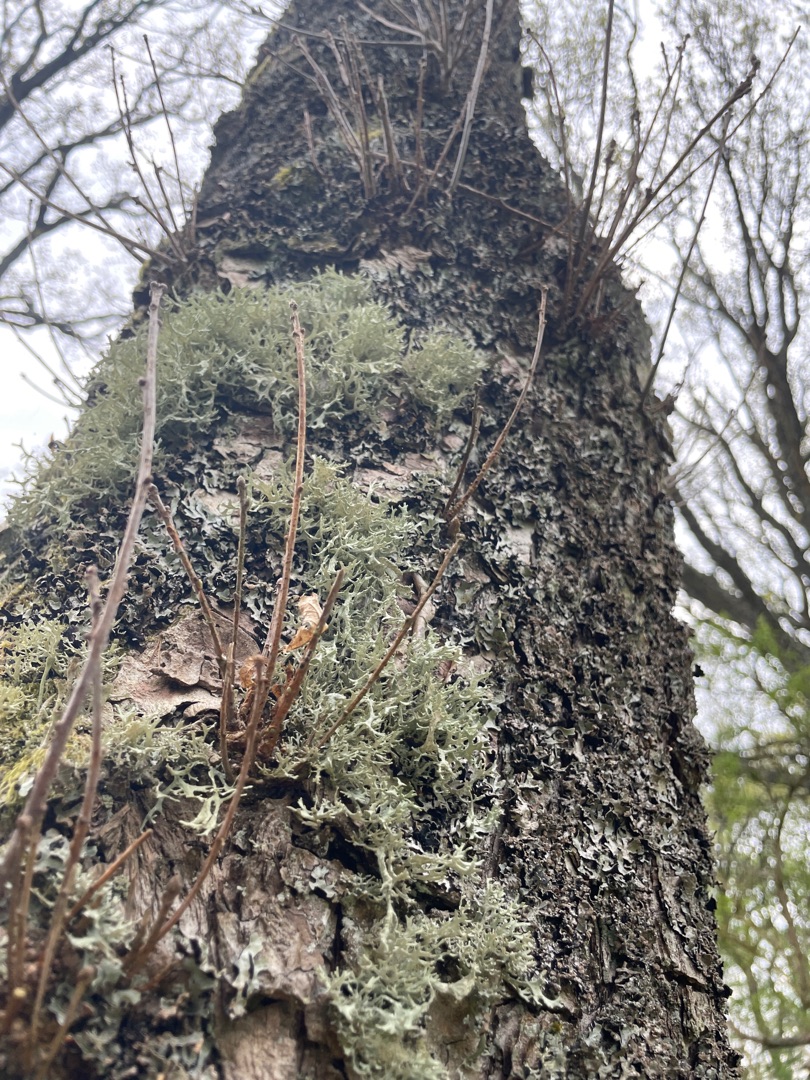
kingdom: Fungi
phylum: Ascomycota
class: Lecanoromycetes
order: Lecanorales
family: Parmeliaceae
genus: Evernia
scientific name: Evernia prunastri
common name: Almindelig slåenlav
